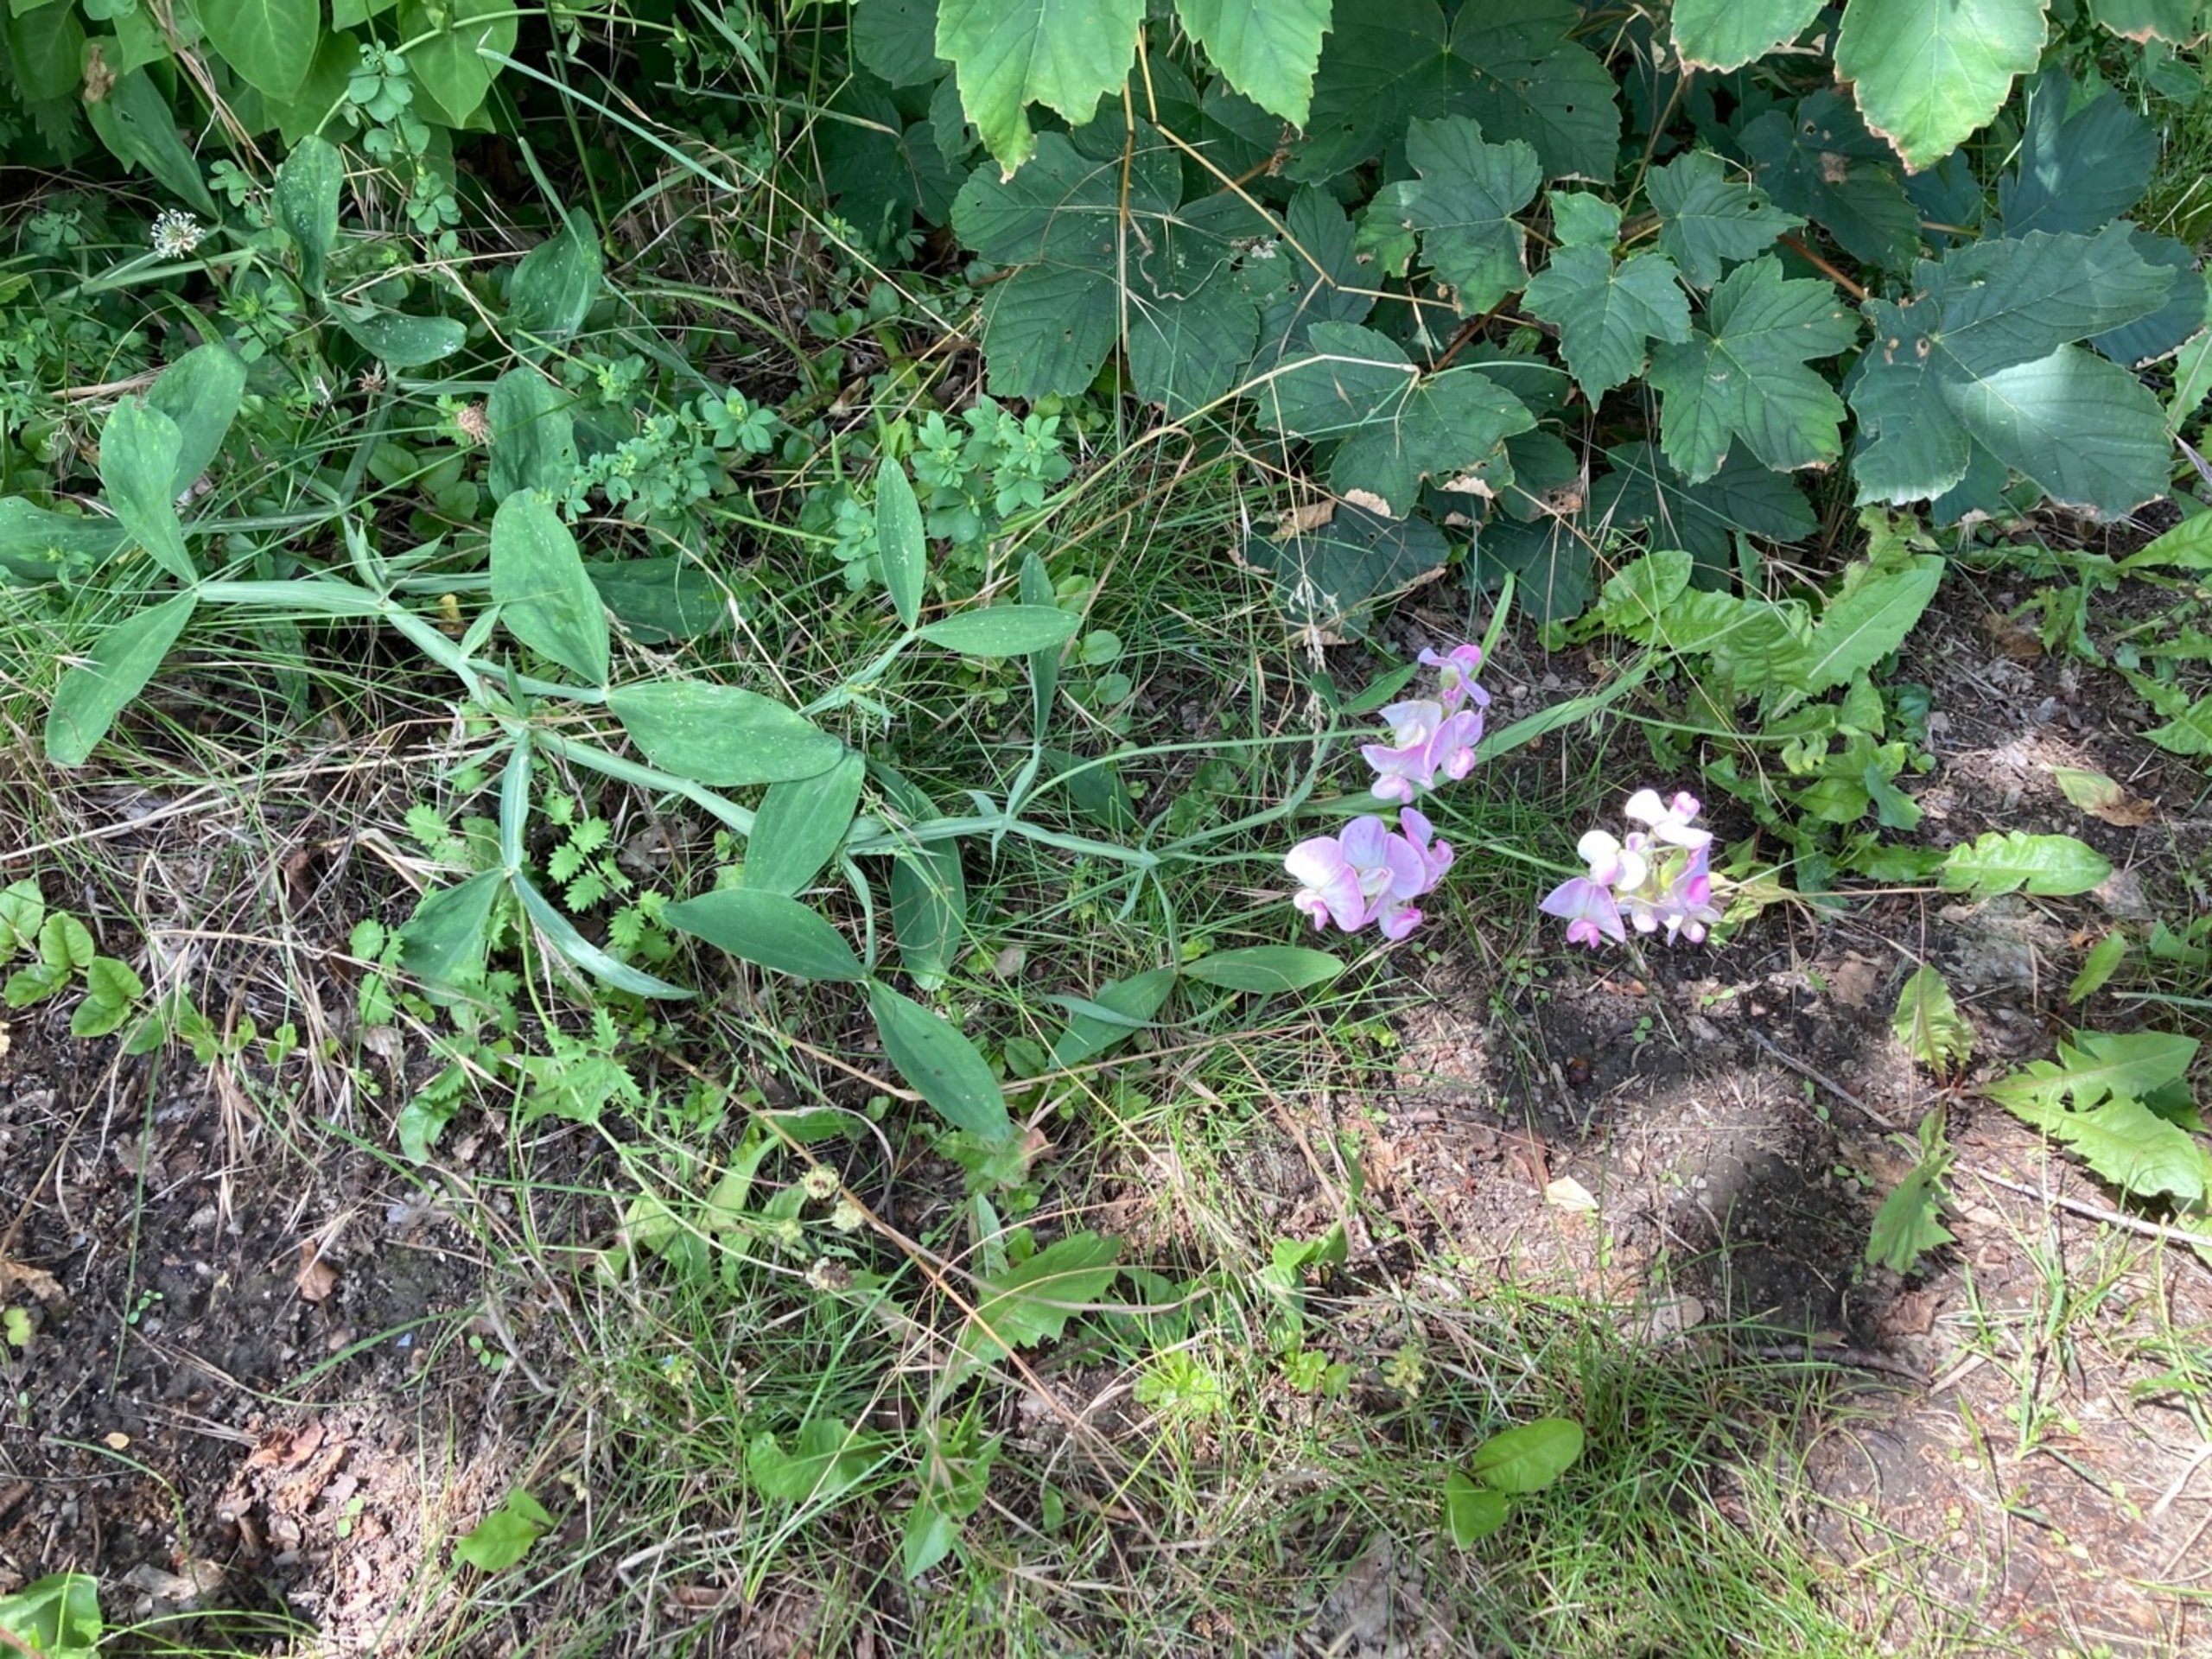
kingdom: Plantae
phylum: Tracheophyta
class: Magnoliopsida
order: Fabales
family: Fabaceae
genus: Lathyrus
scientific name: Lathyrus latifolius
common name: Flerårig ærteblomst
